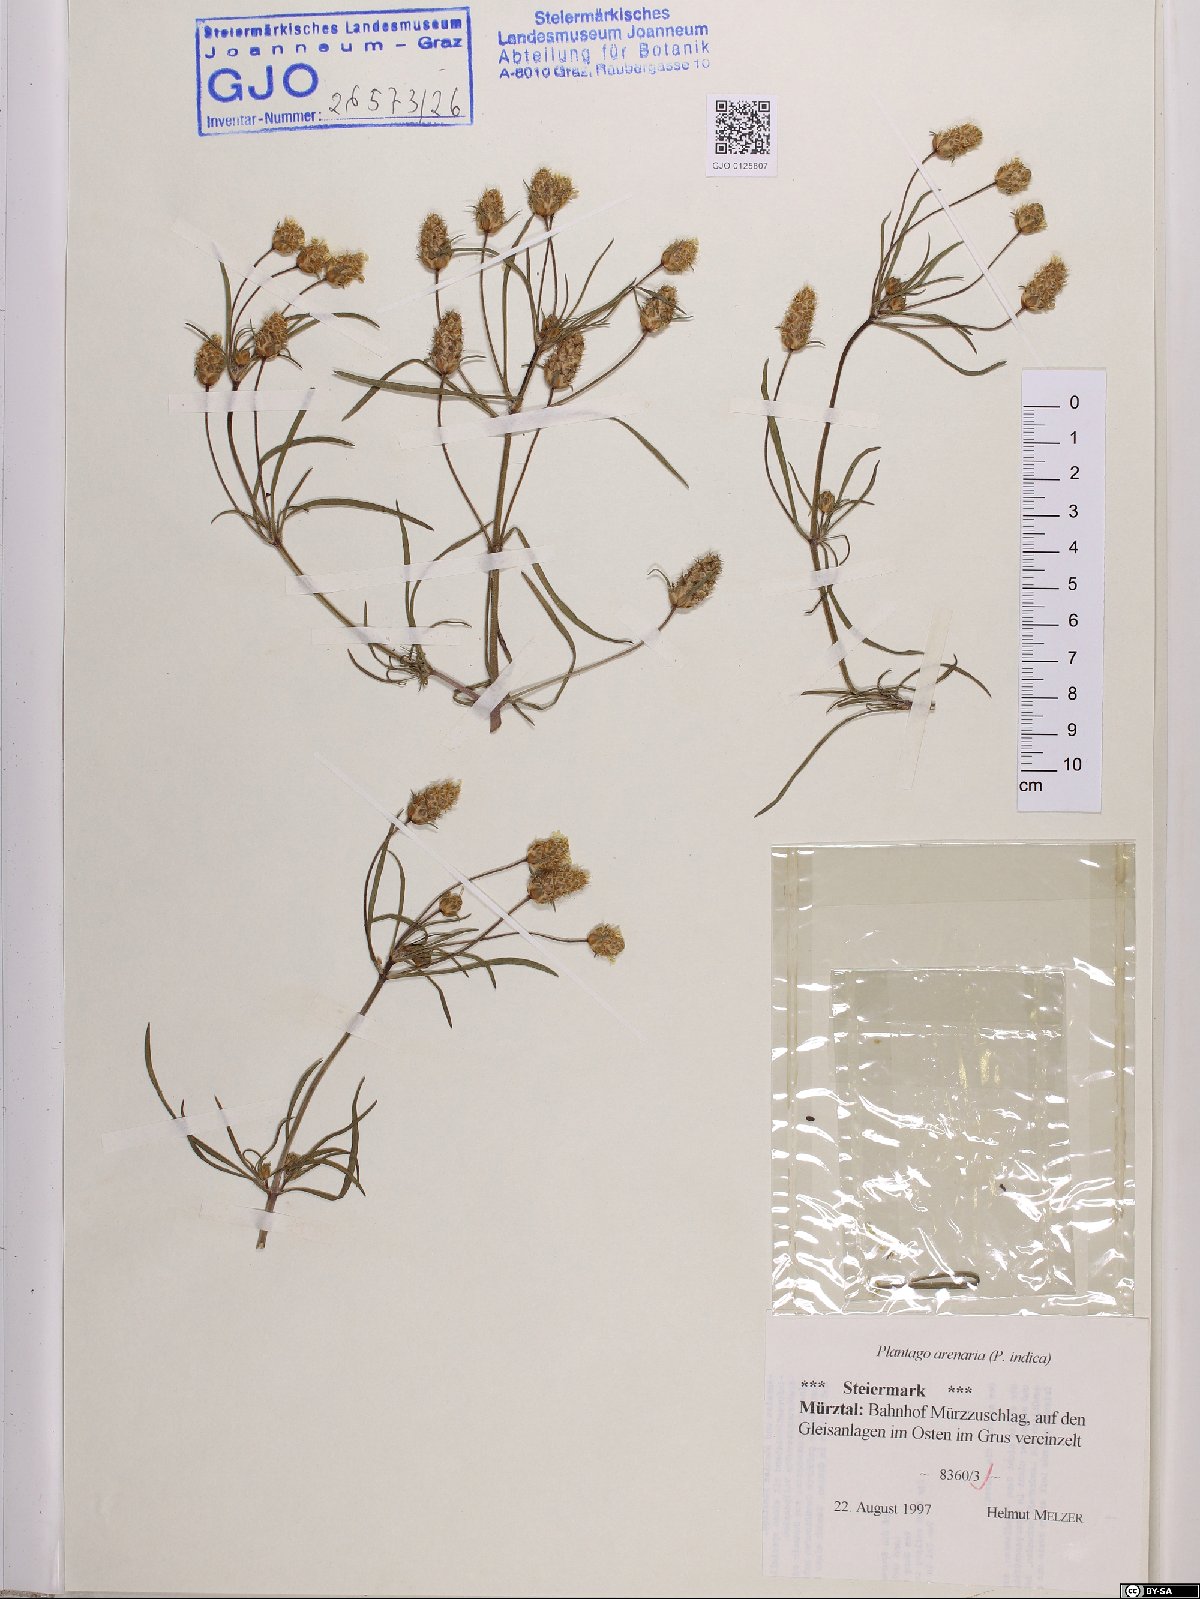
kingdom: Plantae
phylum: Tracheophyta
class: Magnoliopsida
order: Lamiales
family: Plantaginaceae
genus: Plantago
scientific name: Plantago arenaria
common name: Branched plantain
